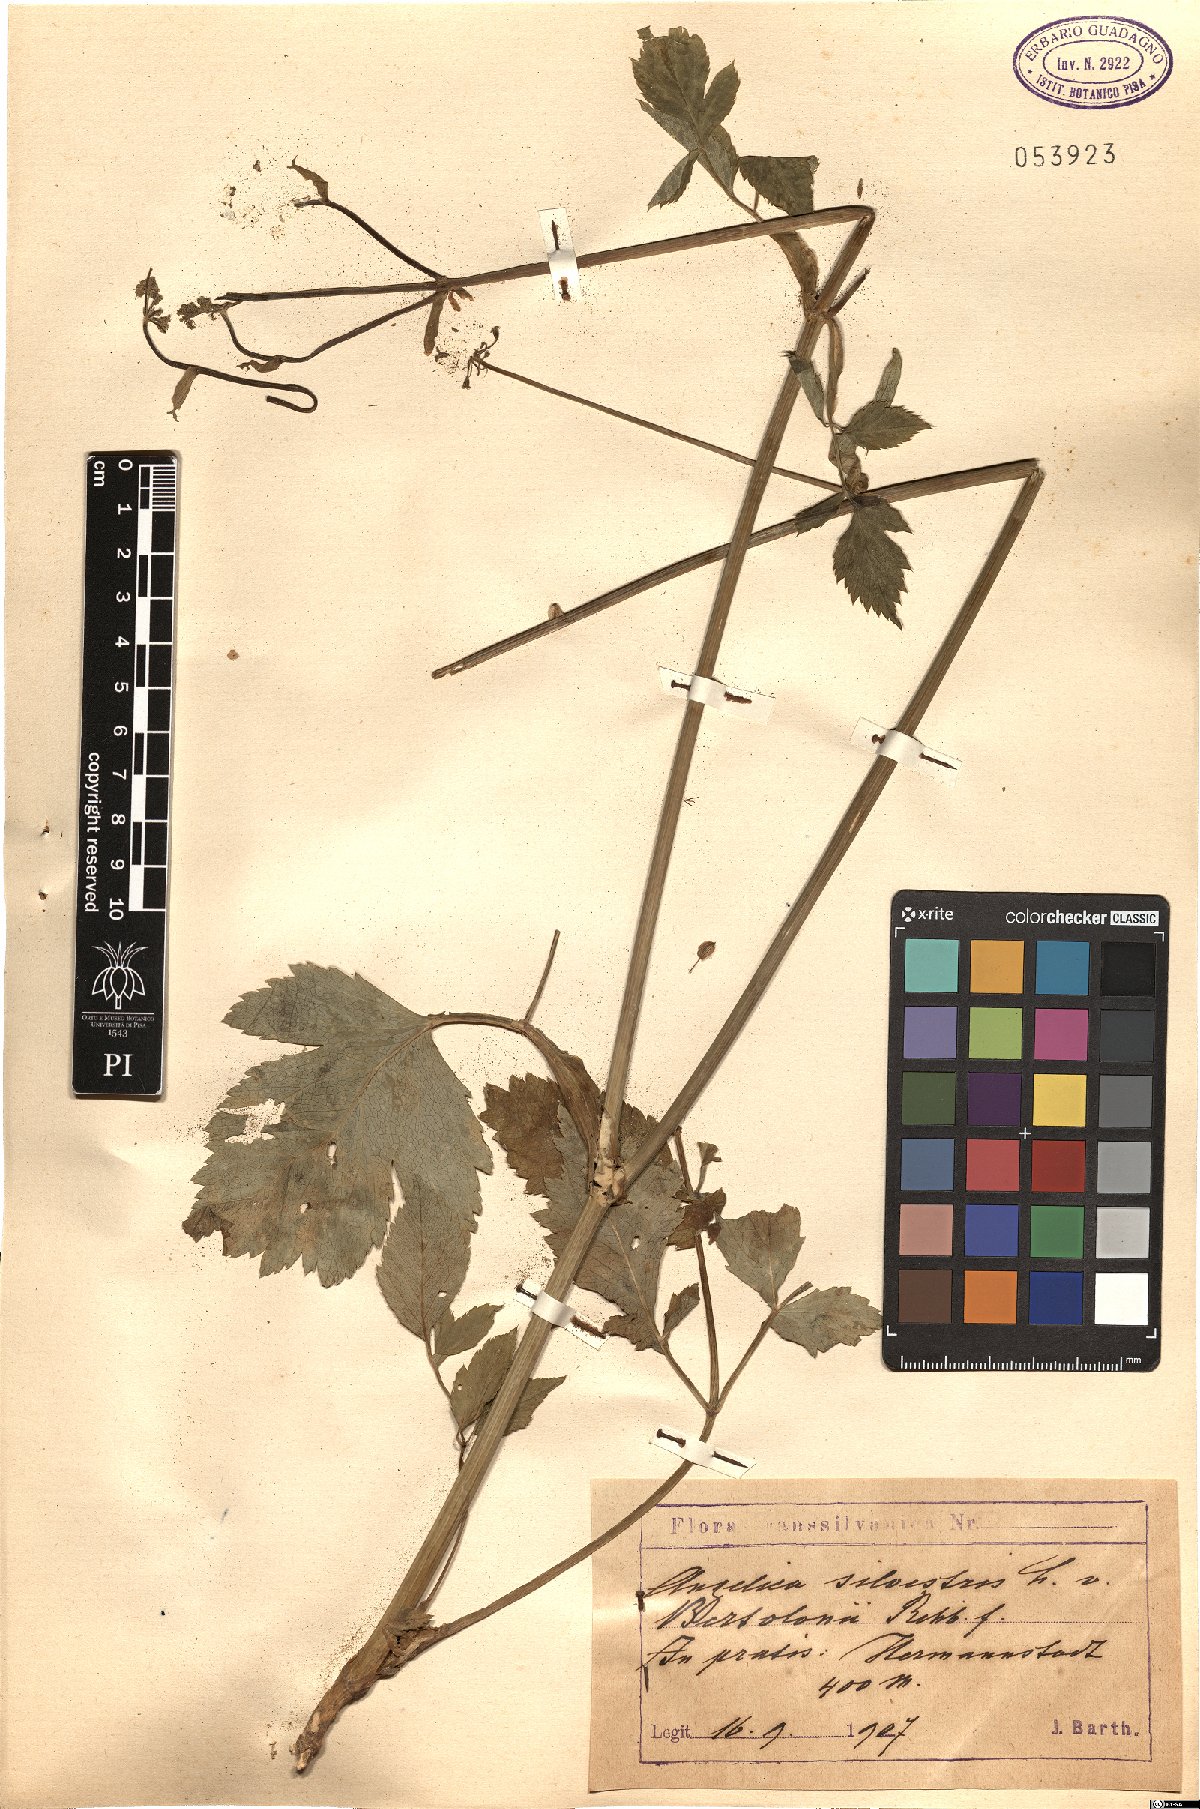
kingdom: Plantae
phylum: Tracheophyta
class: Magnoliopsida
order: Apiales
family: Apiaceae
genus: Angelica
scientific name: Angelica sylvestris
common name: Wild angelica
